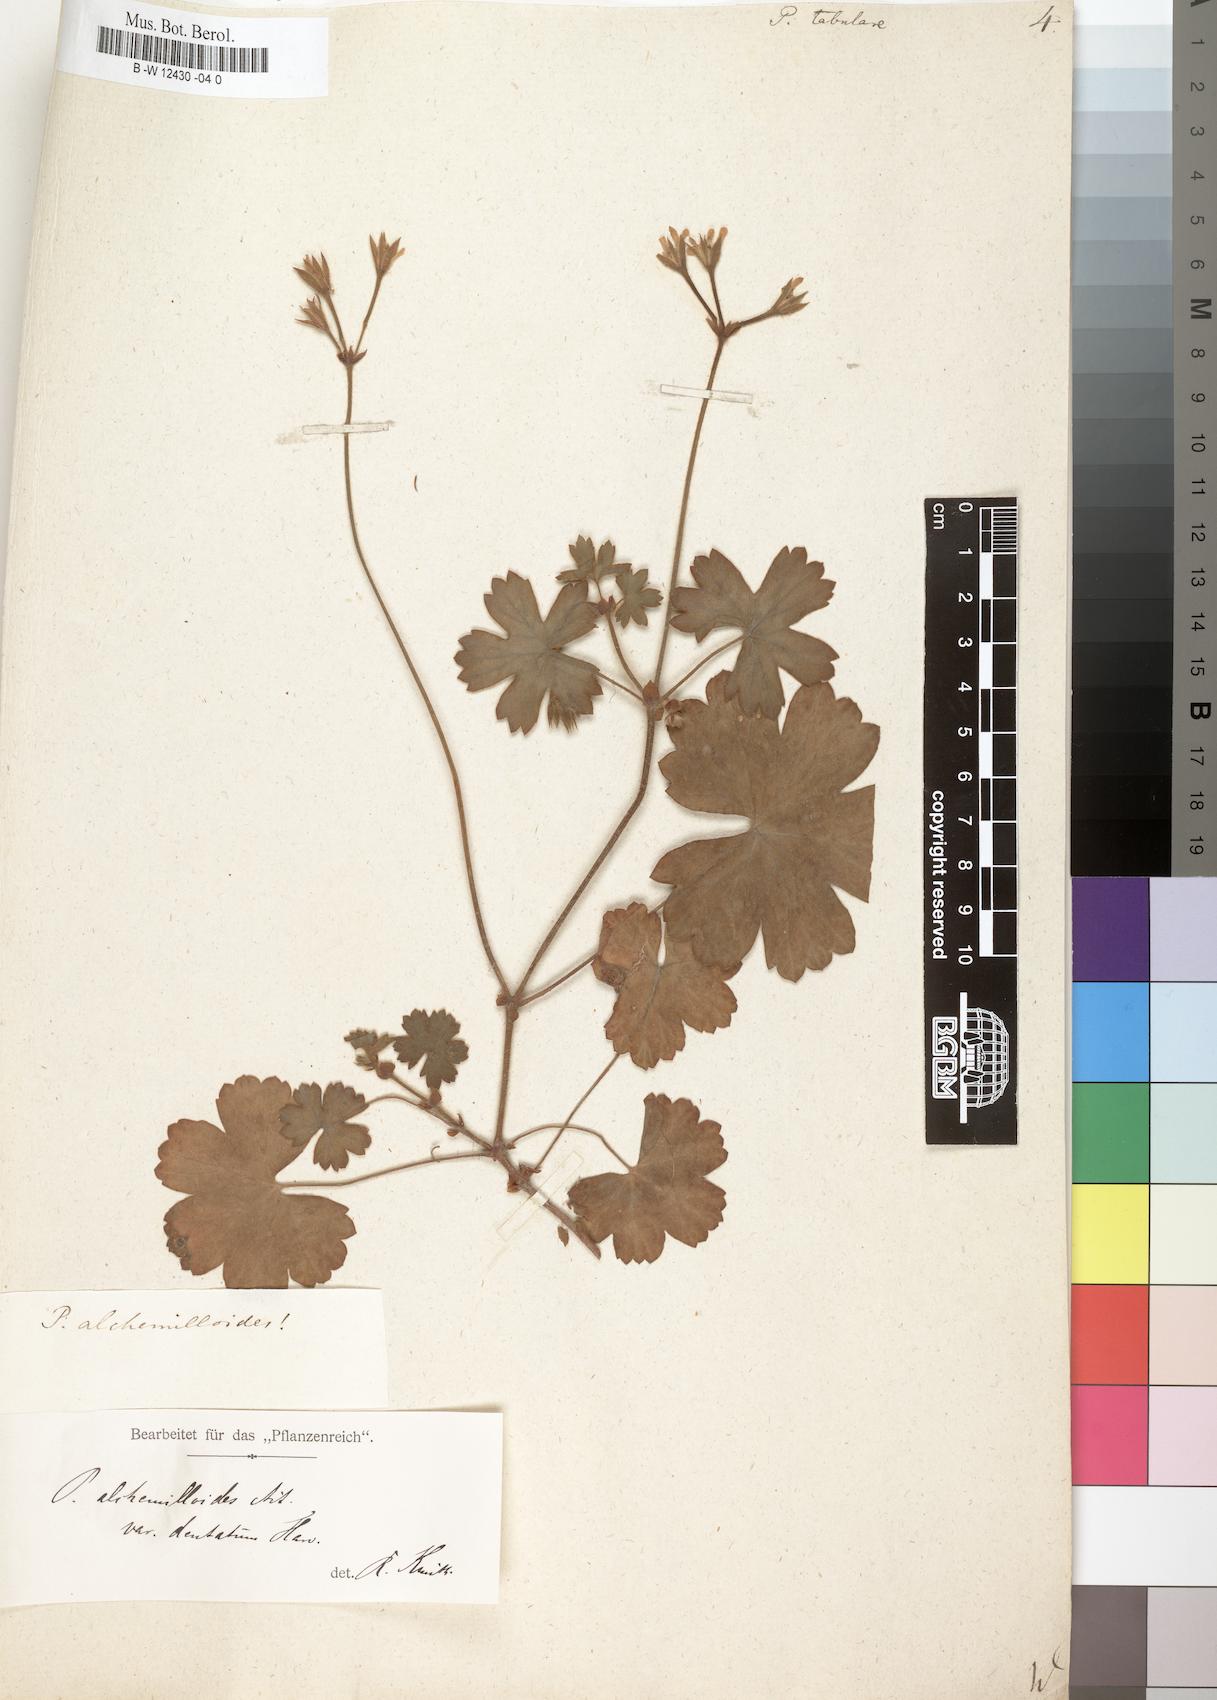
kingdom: Plantae
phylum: Tracheophyta
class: Magnoliopsida
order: Geraniales
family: Geraniaceae
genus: Pelargonium
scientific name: Pelargonium tabulare
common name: Table mountain pelargonium
